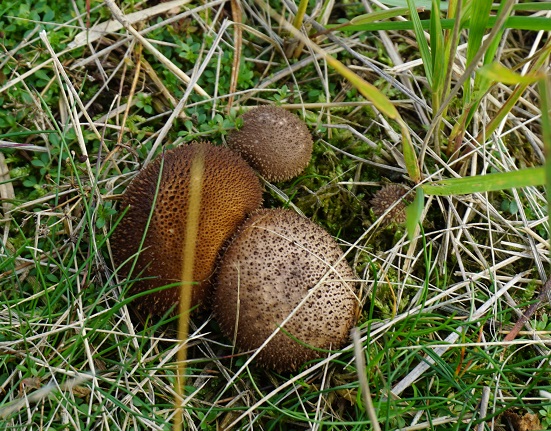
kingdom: Fungi
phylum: Basidiomycota
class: Agaricomycetes
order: Agaricales
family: Lycoperdaceae
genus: Lycoperdon
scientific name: Lycoperdon nigrescens
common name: sortagtig støvbold
